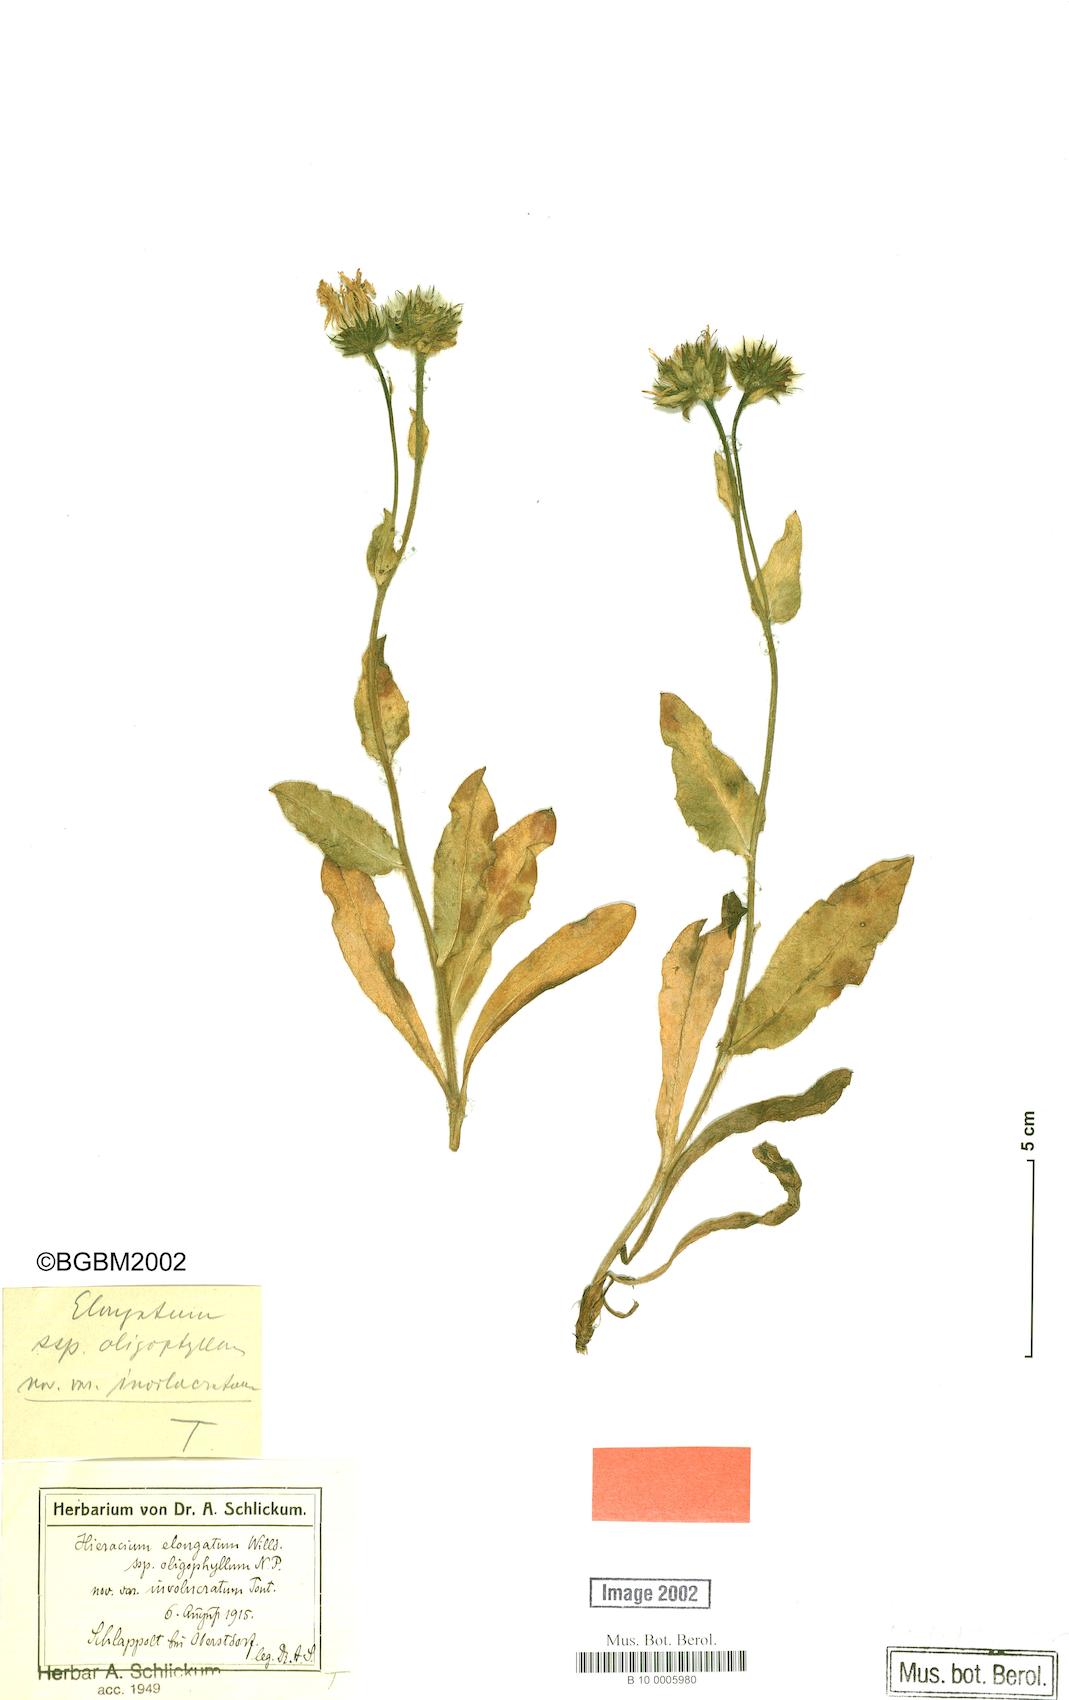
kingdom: Plantae
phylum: Tracheophyta
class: Magnoliopsida
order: Asterales
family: Asteraceae
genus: Hieracium
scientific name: Hieracium valdepilosum
